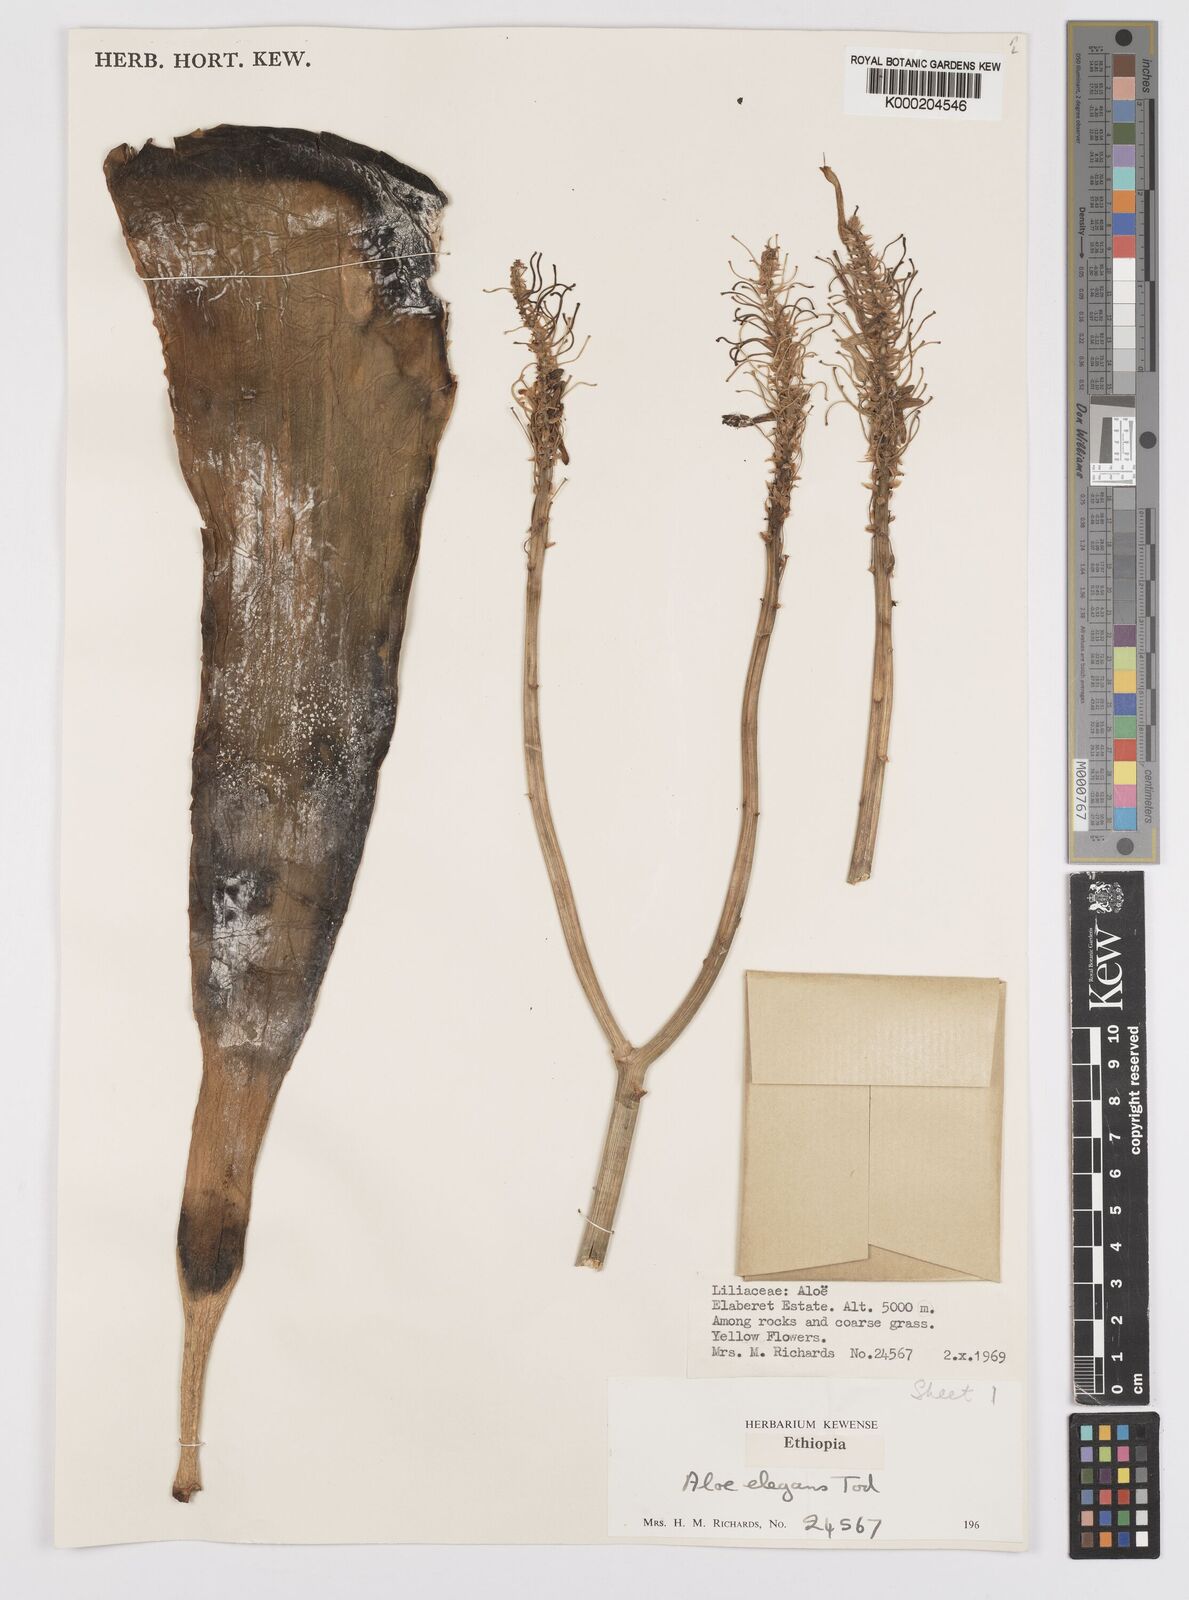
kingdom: Plantae
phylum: Tracheophyta
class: Liliopsida
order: Asparagales
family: Asphodelaceae
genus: Aloe
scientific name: Aloe elegans
